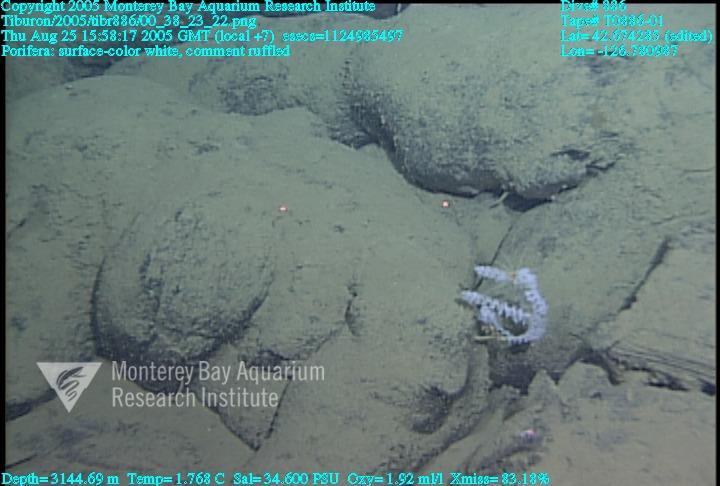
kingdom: Animalia
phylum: Porifera
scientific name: Porifera
